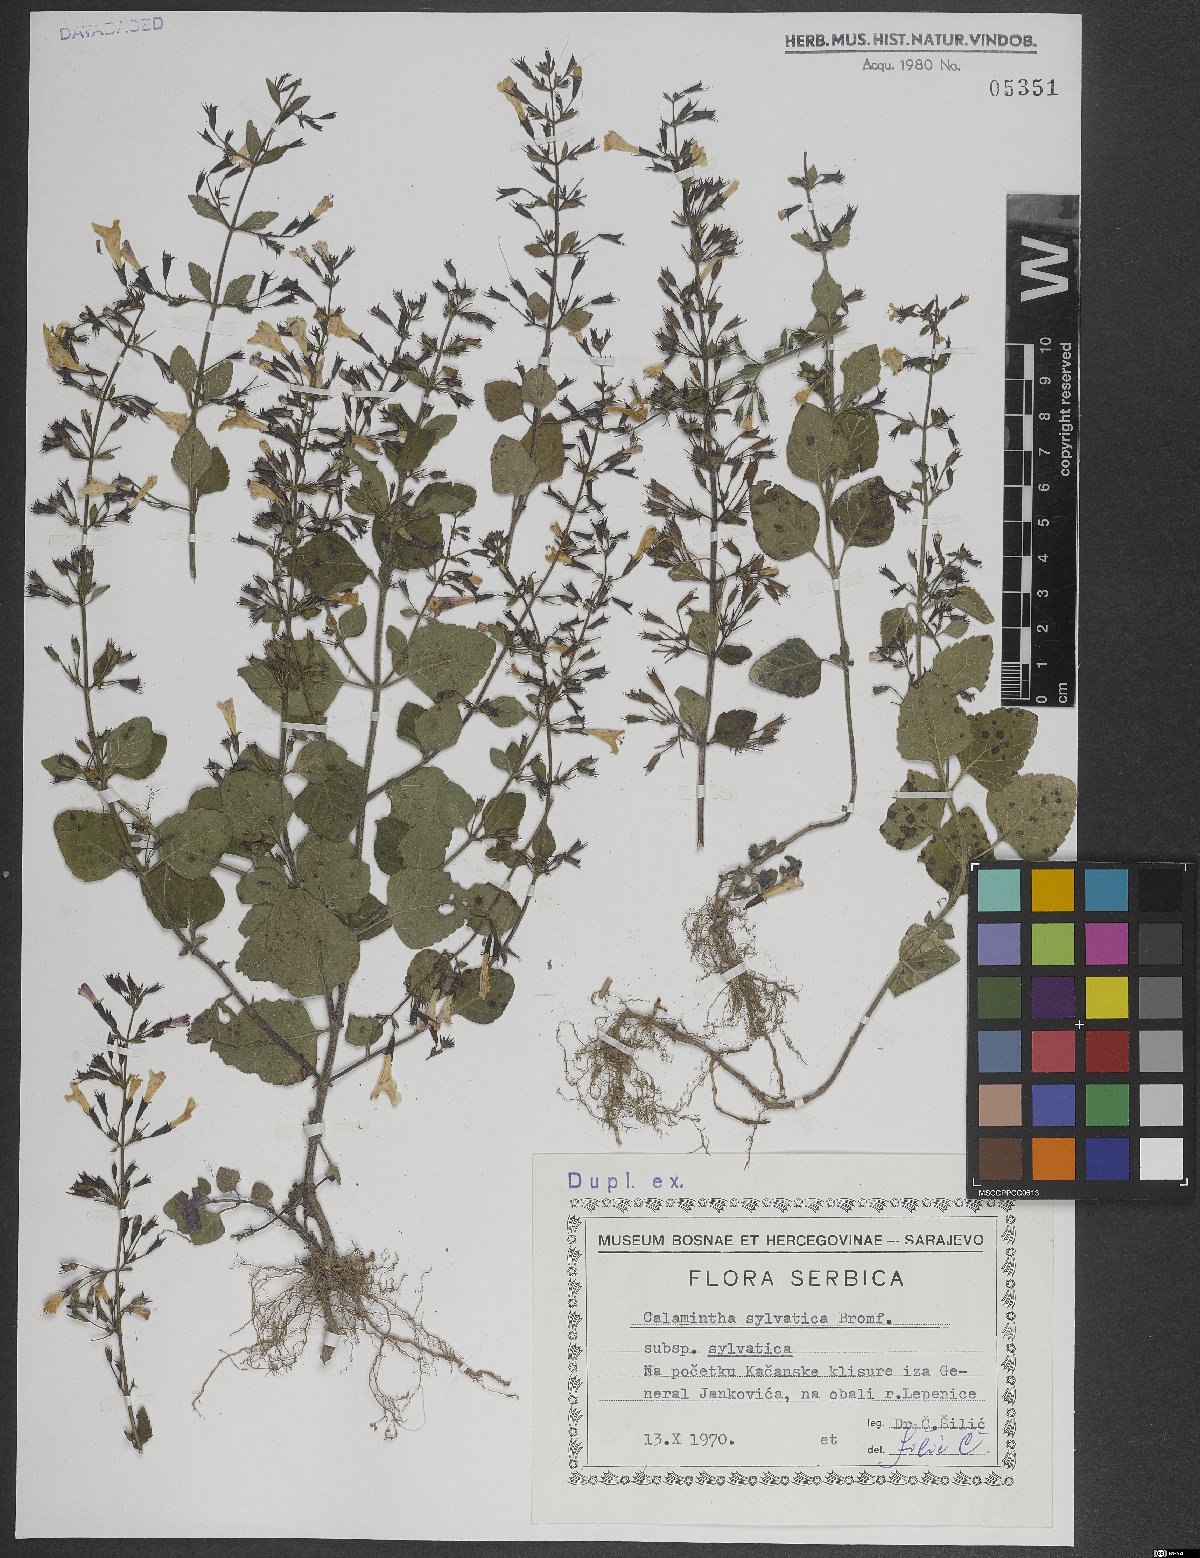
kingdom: Plantae
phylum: Tracheophyta
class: Magnoliopsida
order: Lamiales
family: Lamiaceae
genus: Clinopodium
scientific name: Clinopodium menthifolium
